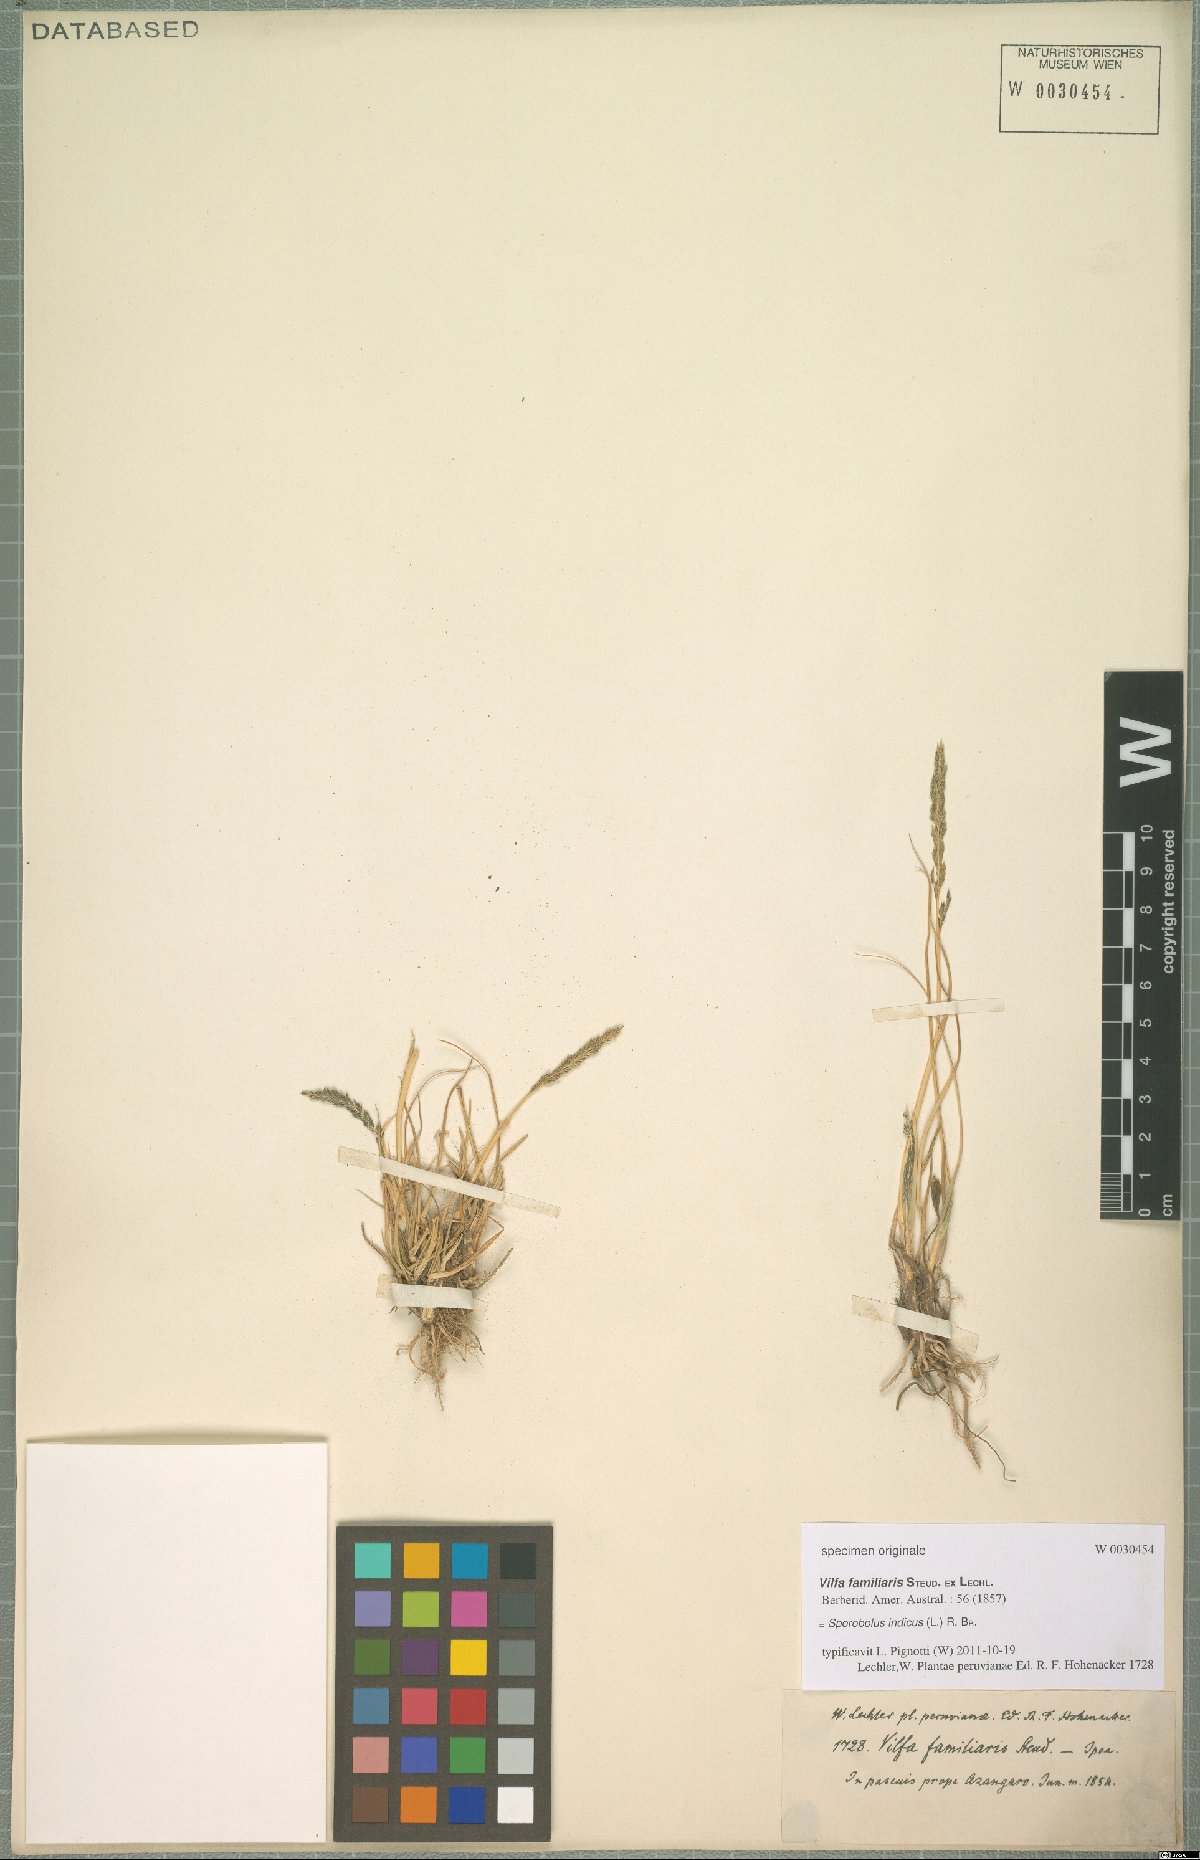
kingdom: Plantae
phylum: Tracheophyta
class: Liliopsida
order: Poales
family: Poaceae
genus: Sporobolus
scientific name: Sporobolus indicus
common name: Smut grass
